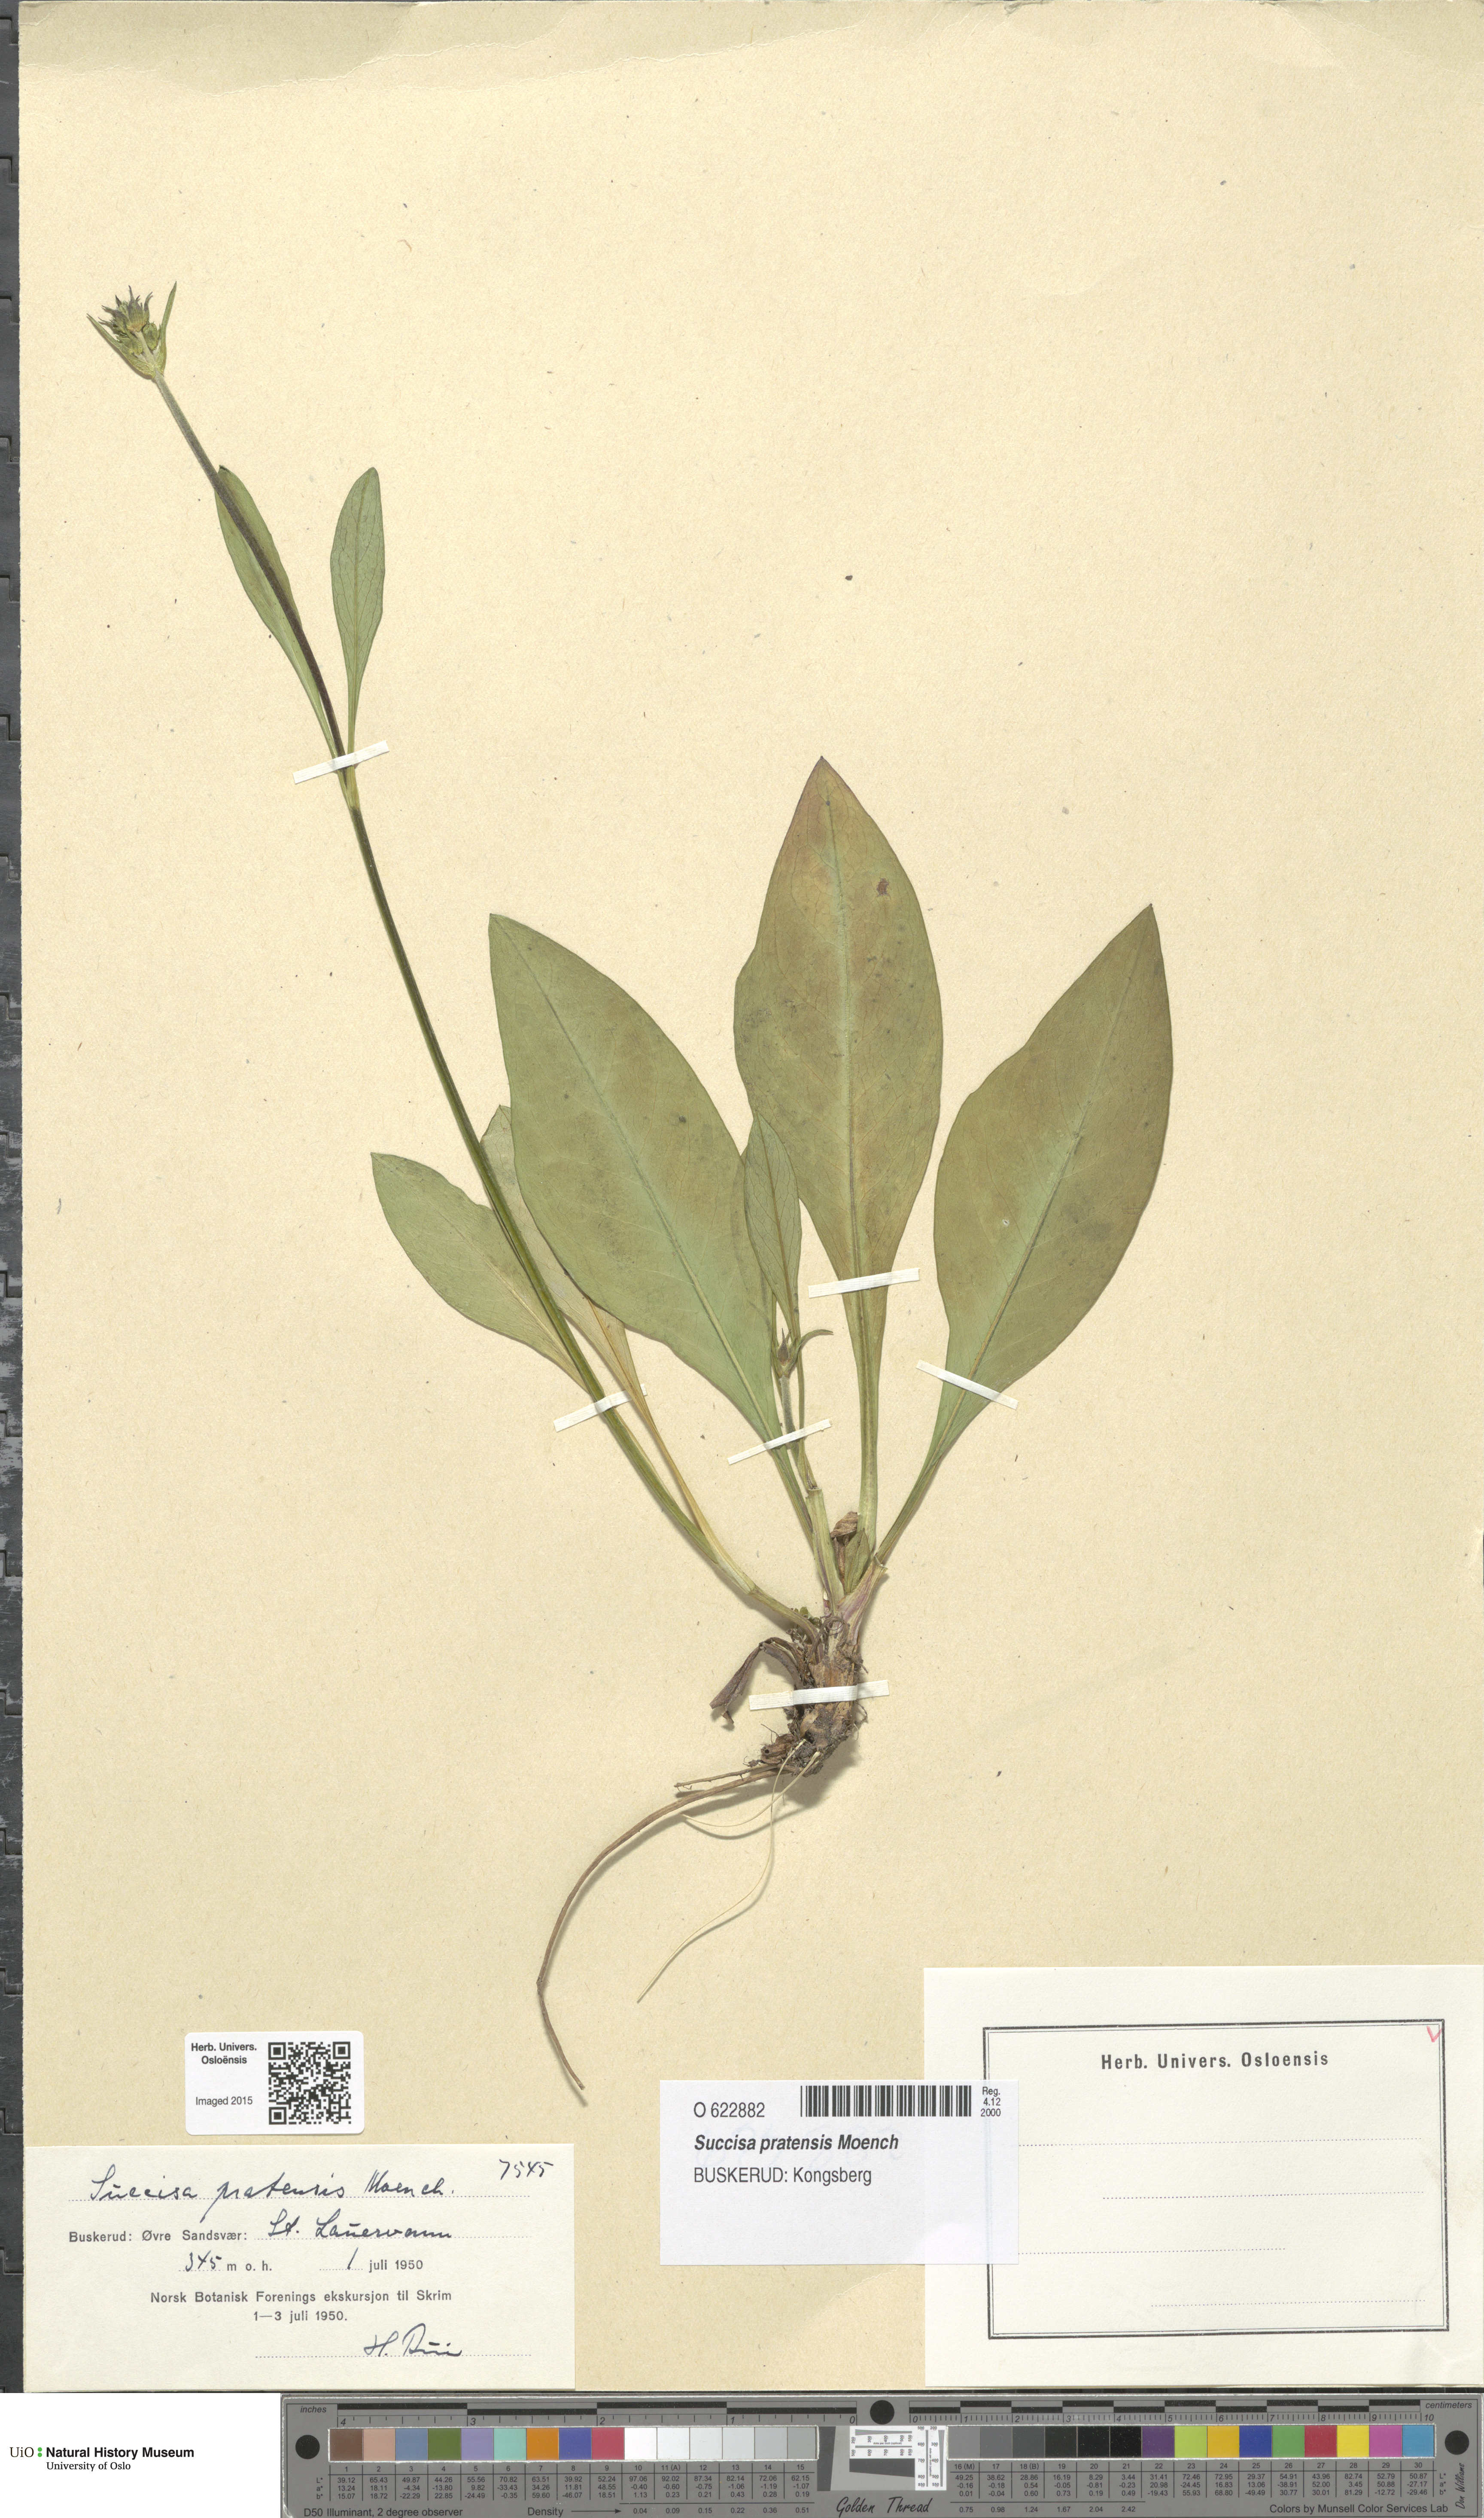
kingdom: Plantae
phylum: Tracheophyta
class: Magnoliopsida
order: Dipsacales
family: Caprifoliaceae
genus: Succisa
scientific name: Succisa pratensis
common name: Devil's-bit
